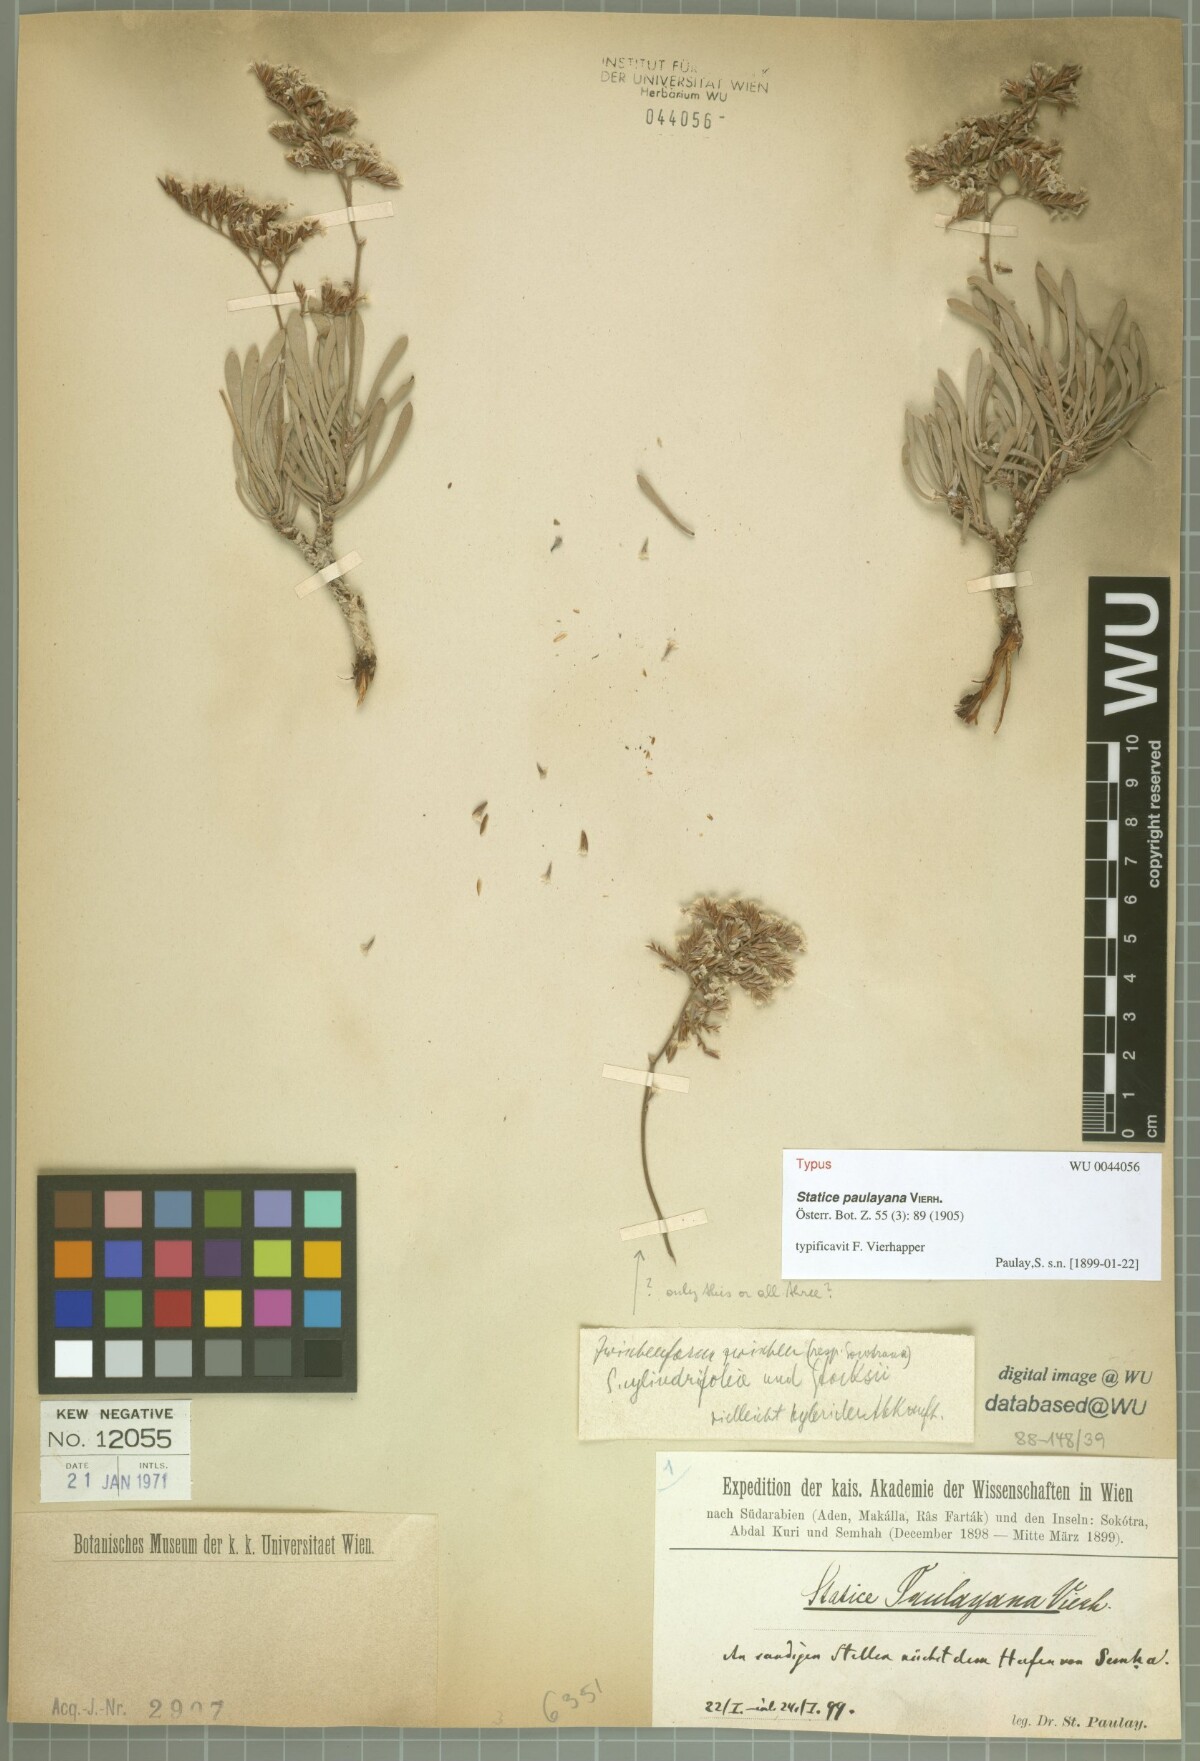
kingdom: Plantae
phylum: Tracheophyta
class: Magnoliopsida
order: Caryophyllales
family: Plumbaginaceae
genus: Limonium
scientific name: Limonium paulayanum
